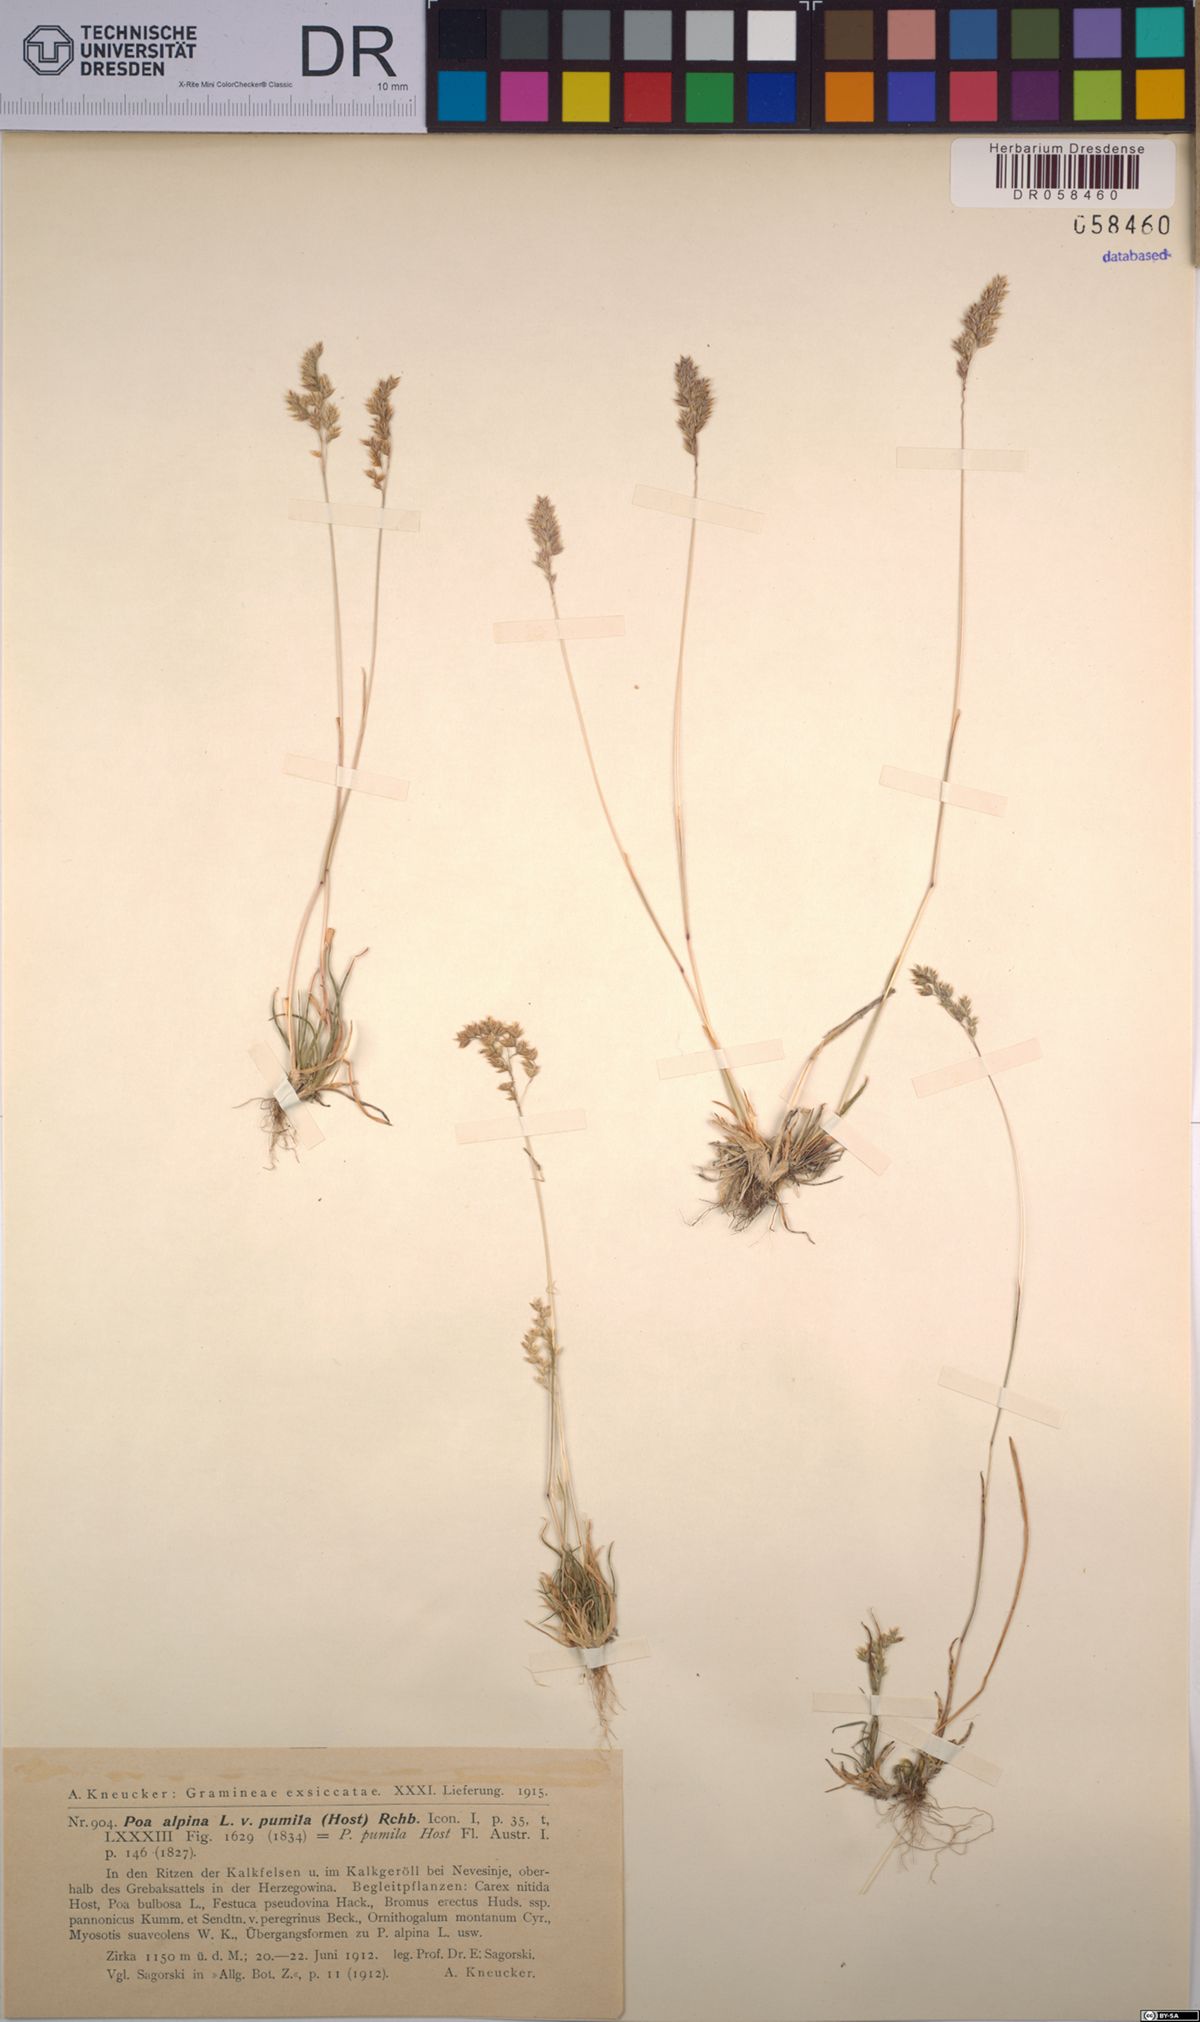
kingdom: Plantae
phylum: Tracheophyta
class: Liliopsida
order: Poales
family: Poaceae
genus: Poa
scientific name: Poa alpina
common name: Alpine bluegrass
